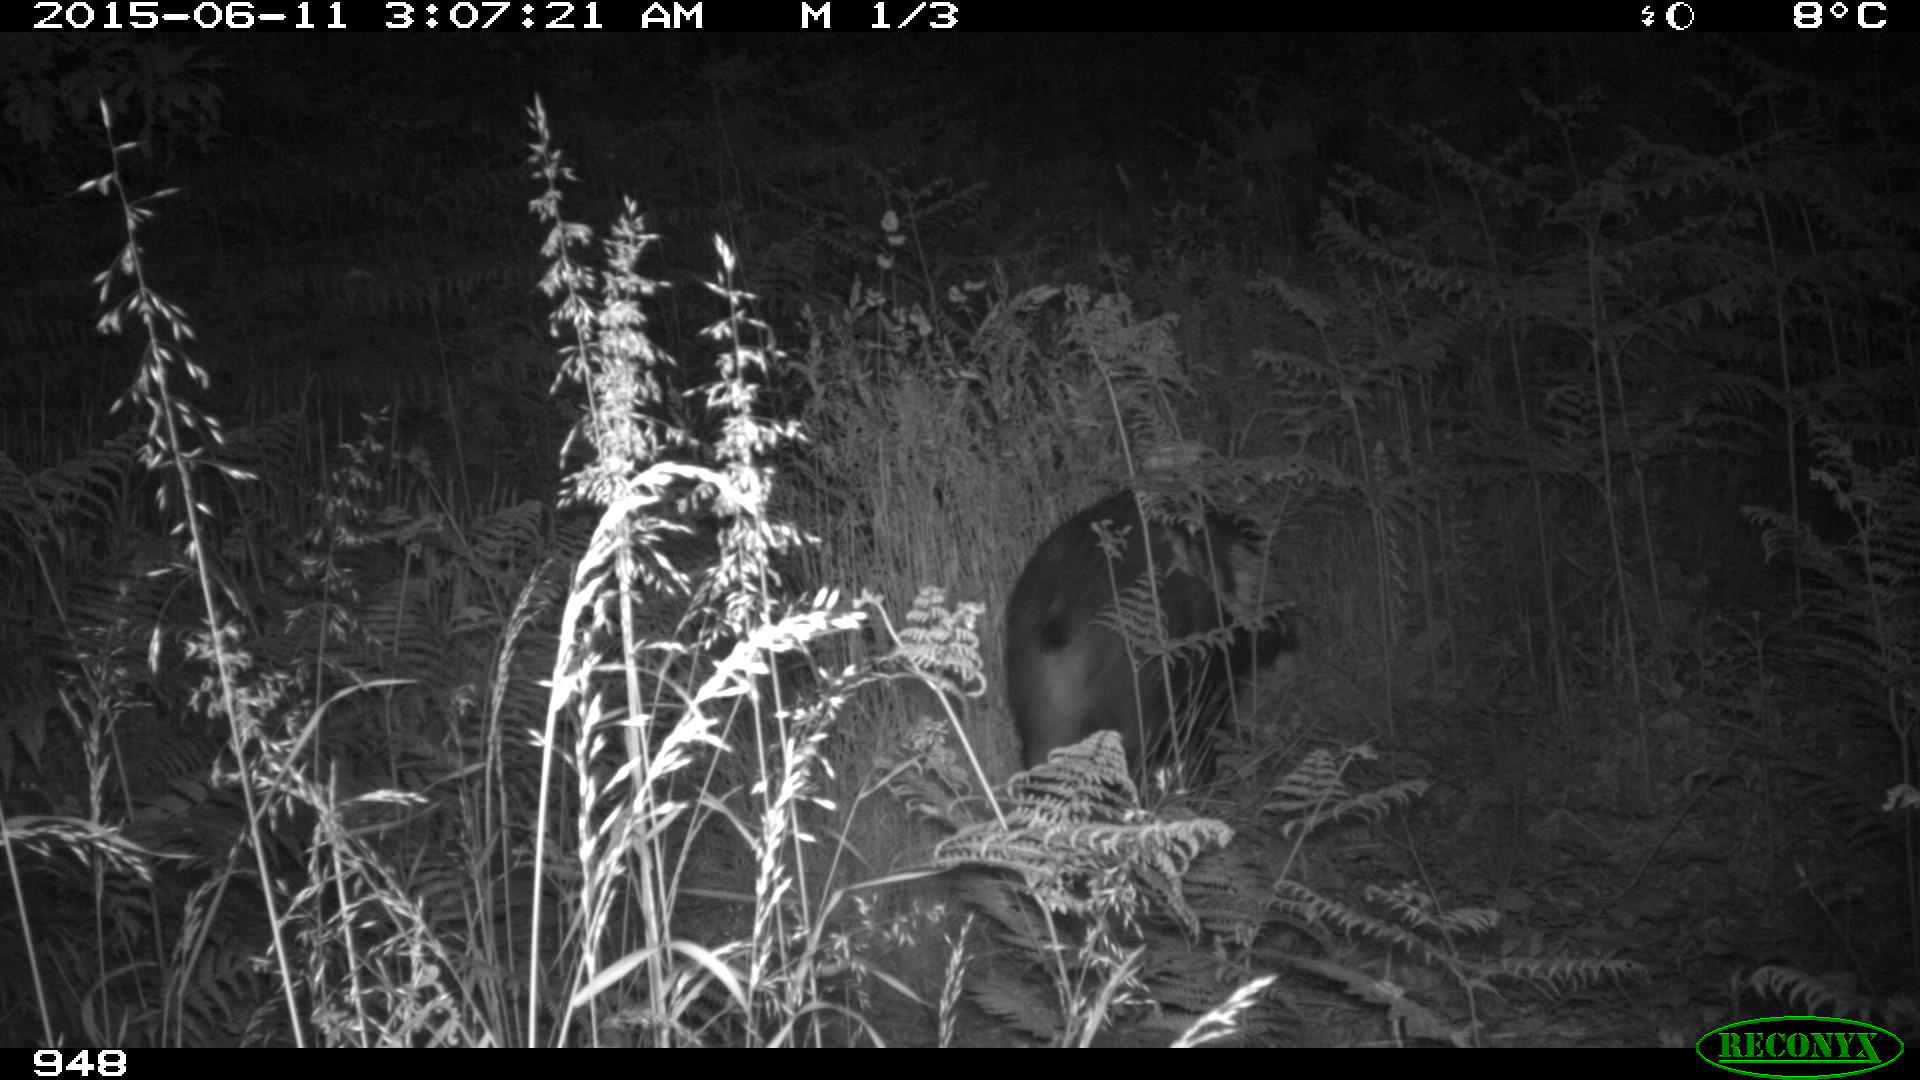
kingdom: Animalia
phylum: Chordata
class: Mammalia
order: Artiodactyla
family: Suidae
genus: Sus
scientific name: Sus scrofa
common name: Wild boar
